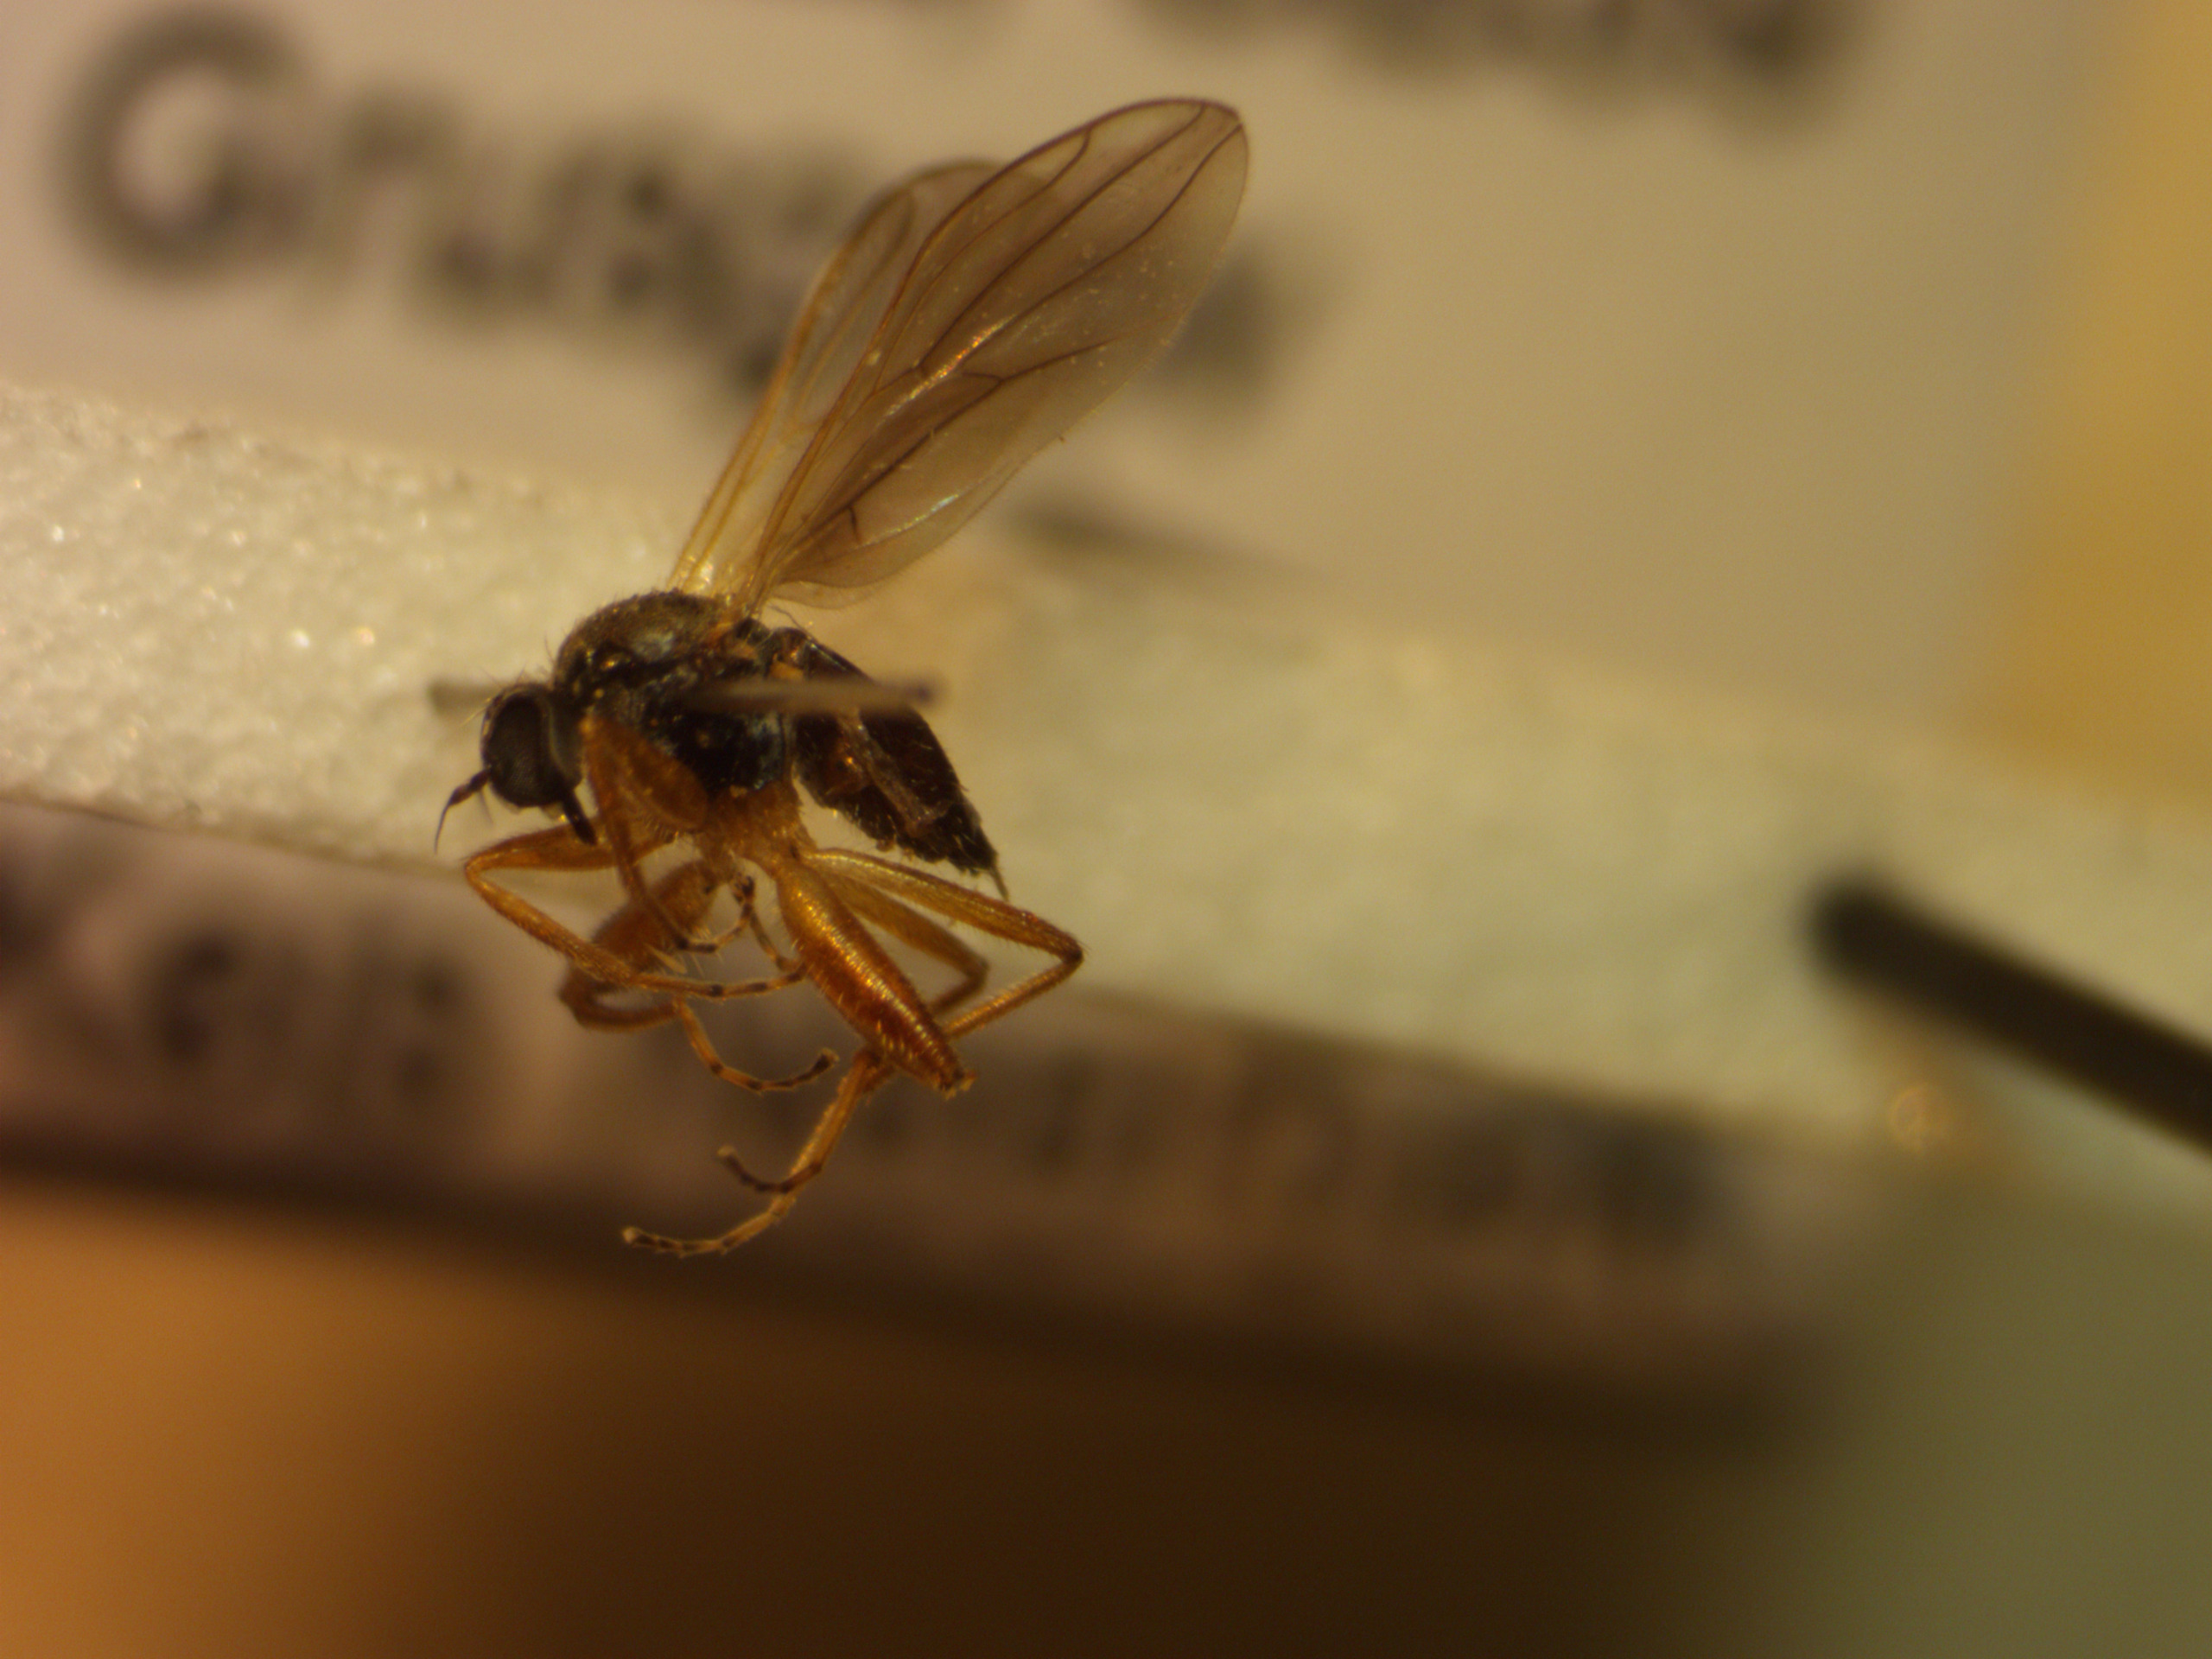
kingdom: Animalia
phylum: Arthropoda
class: Insecta
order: Diptera
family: Hybotidae
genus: Platypalpus
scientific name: Platypalpus annulipes
